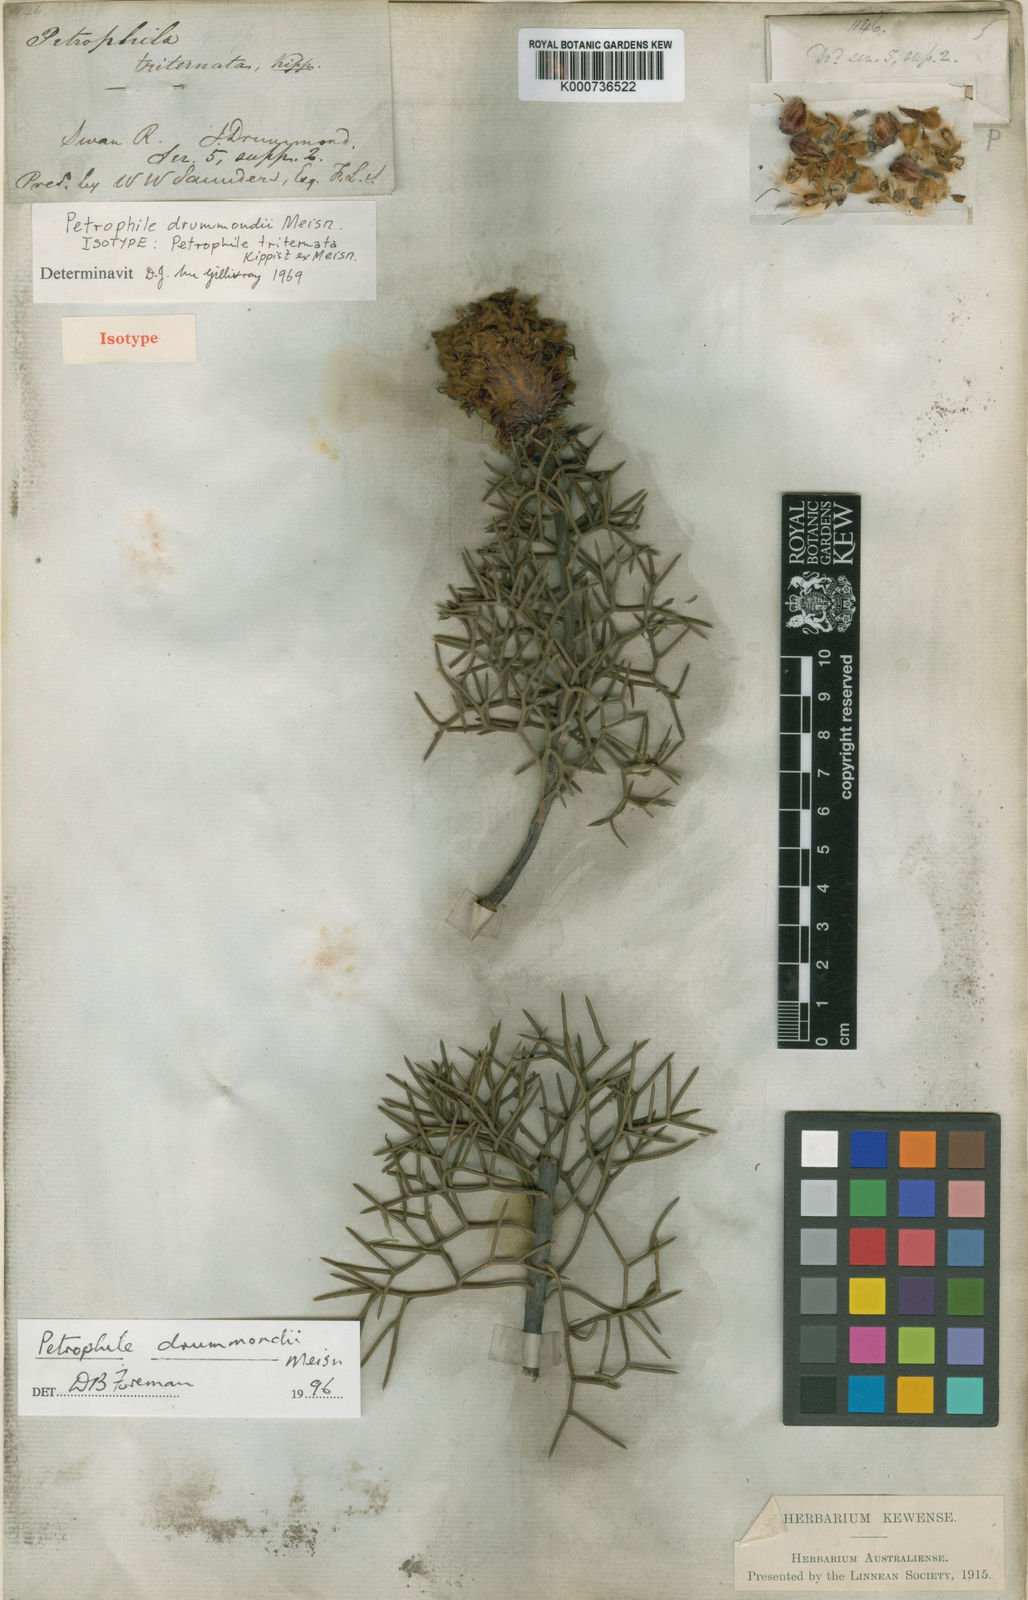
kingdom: Plantae
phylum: Tracheophyta
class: Magnoliopsida
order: Proteales
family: Proteaceae
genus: Petrophile
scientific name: Petrophile drummondii
